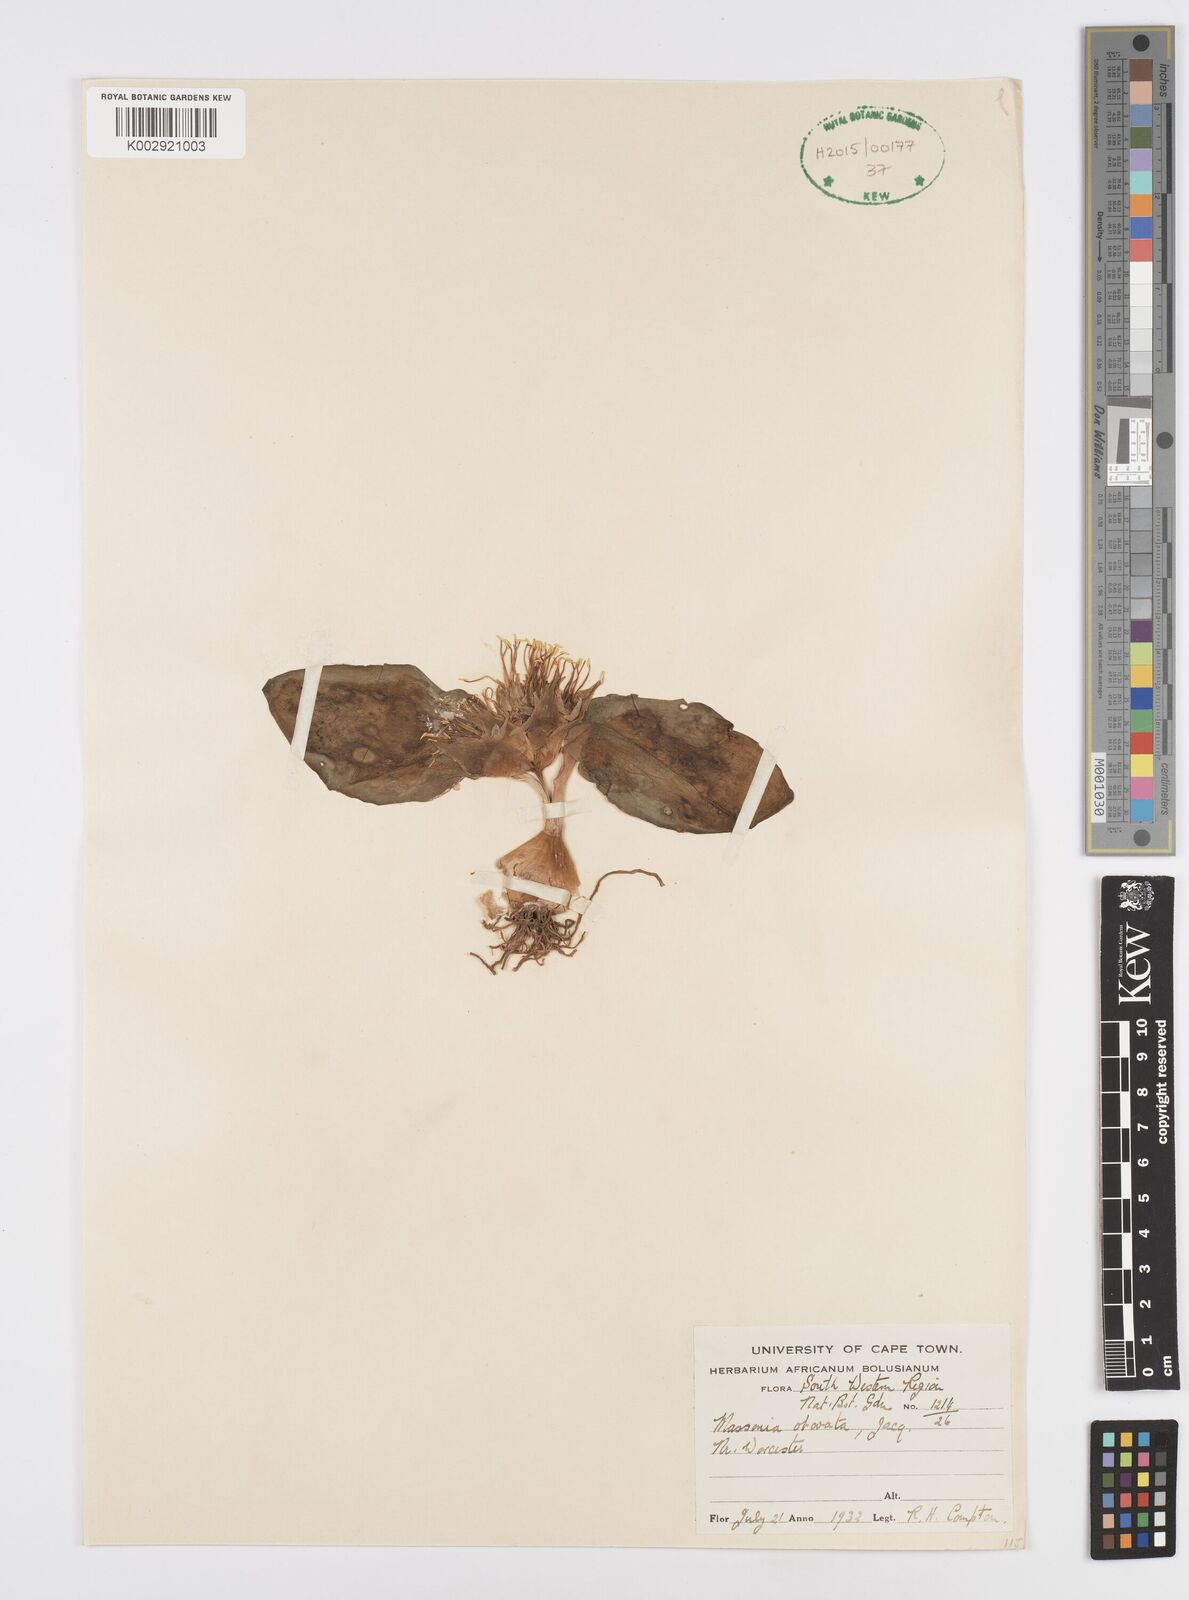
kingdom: Plantae
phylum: Tracheophyta
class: Liliopsida
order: Asparagales
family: Asparagaceae
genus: Massonia
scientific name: Massonia
